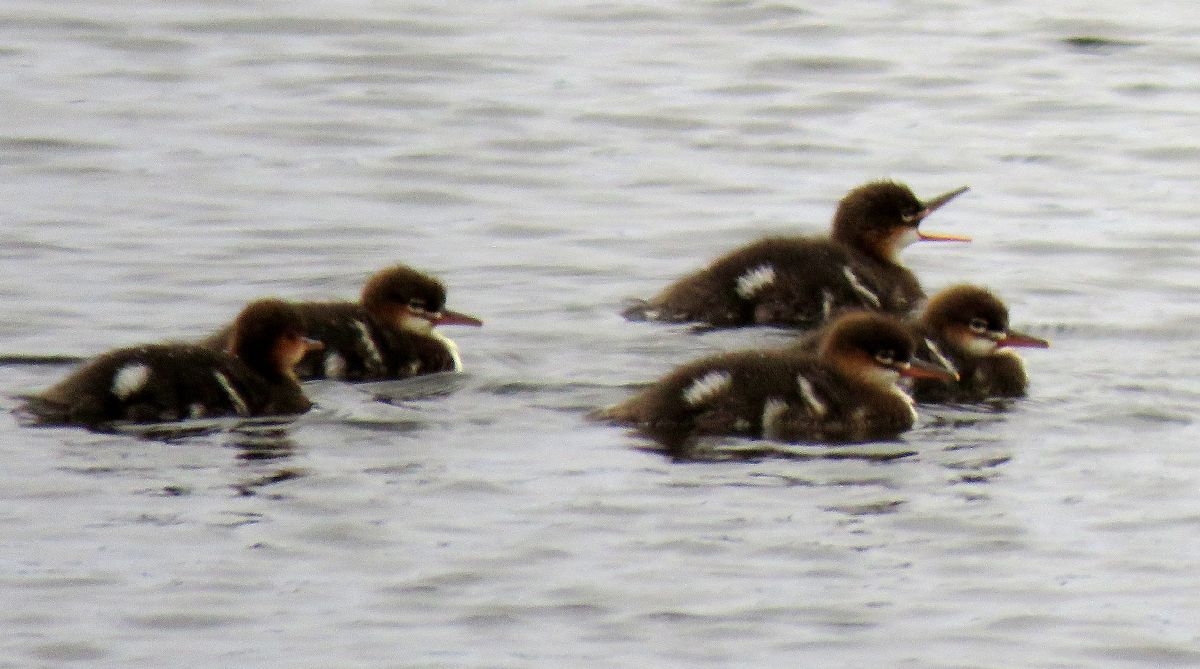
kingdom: Animalia
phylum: Chordata
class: Aves
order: Anseriformes
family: Anatidae
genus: Mergus
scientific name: Mergus serrator
